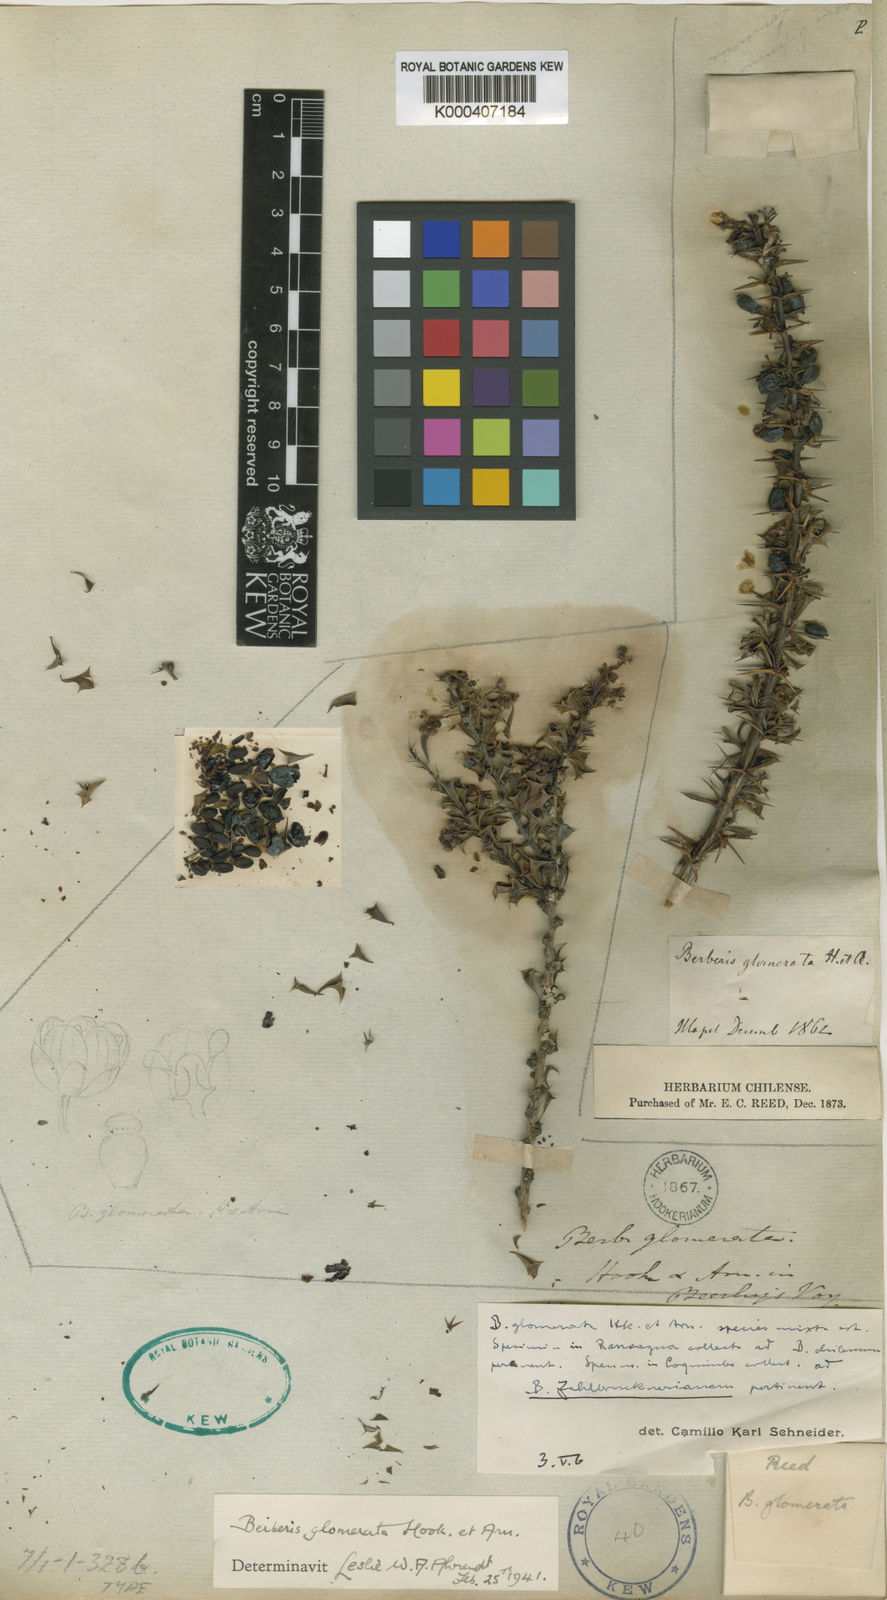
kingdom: Plantae
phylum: Tracheophyta
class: Magnoliopsida
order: Ranunculales
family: Berberidaceae
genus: Berberis
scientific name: Berberis glomerata
